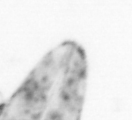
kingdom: Animalia
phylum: Chordata
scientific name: Chordata
